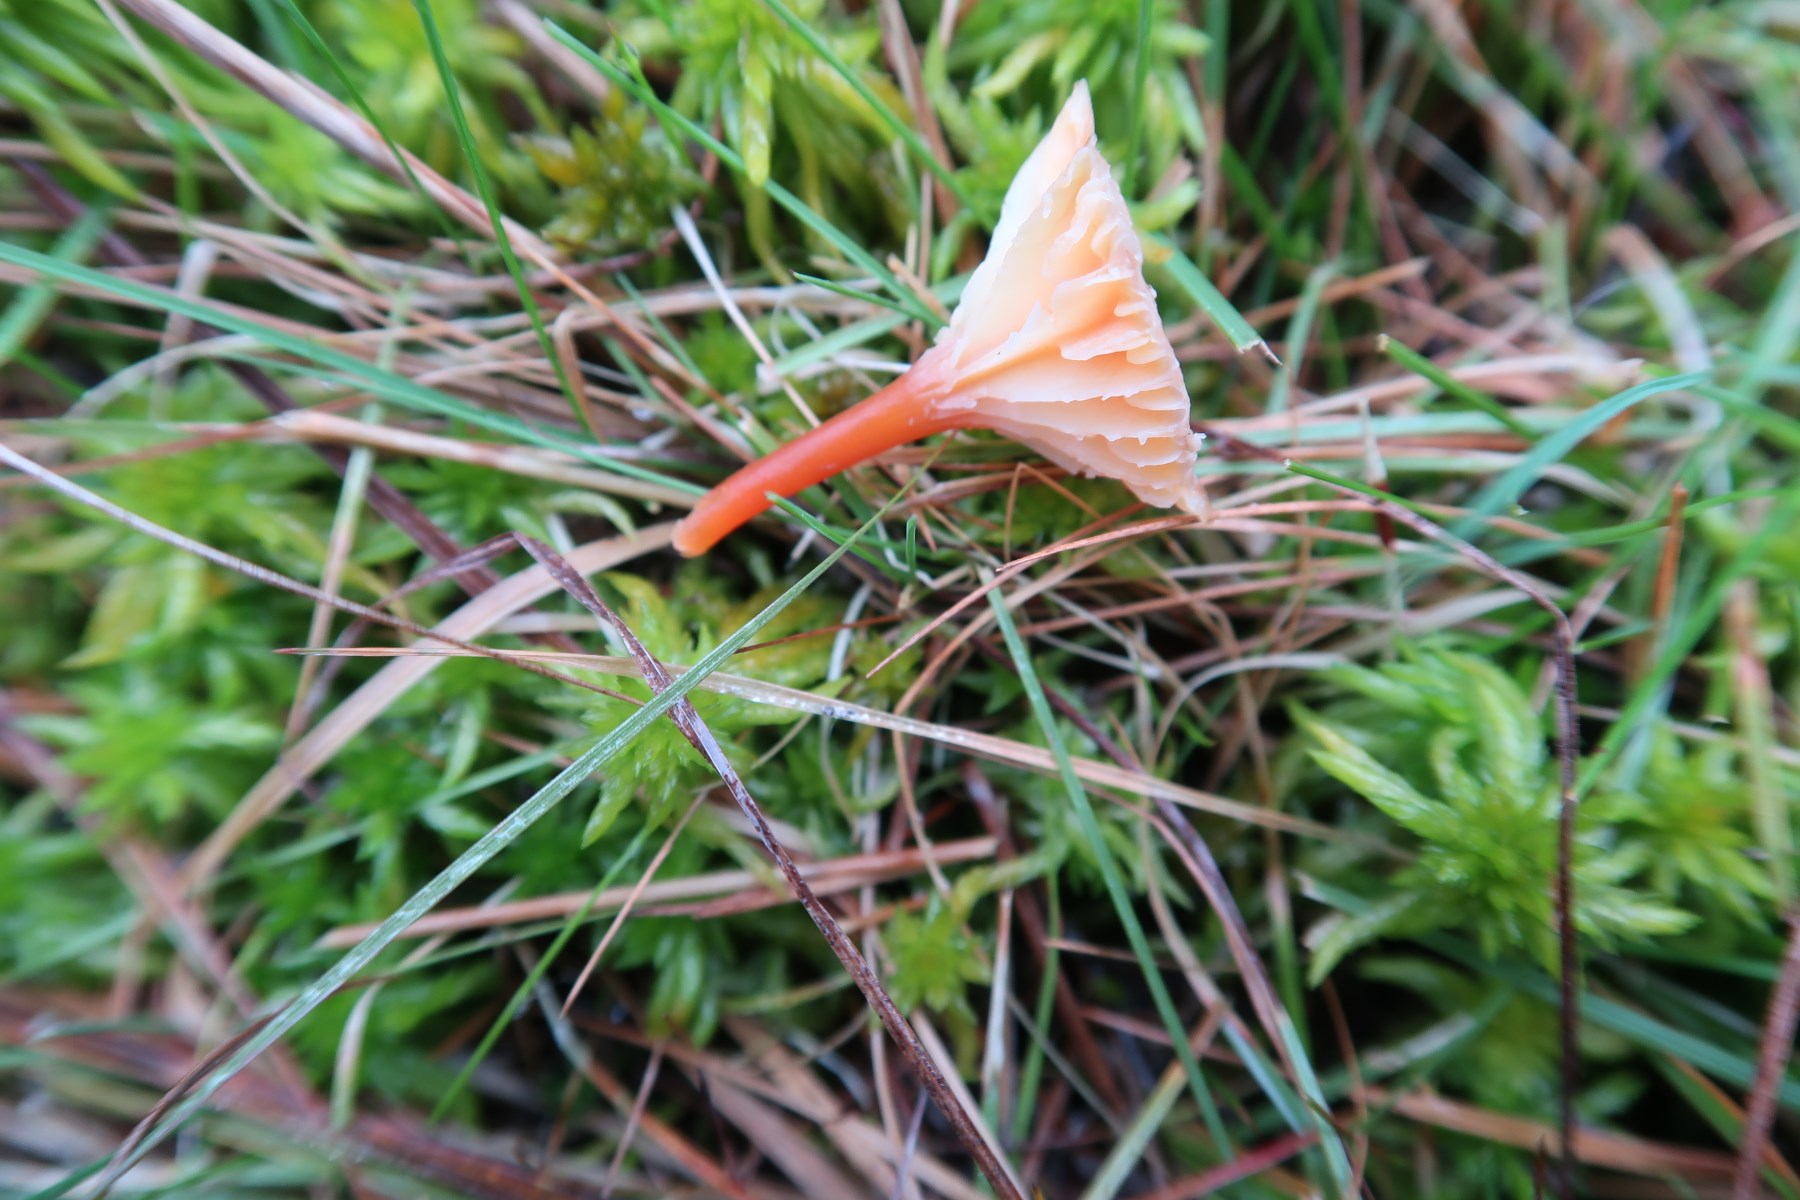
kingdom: Fungi
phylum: Basidiomycota
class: Agaricomycetes
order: Agaricales
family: Hygrophoraceae
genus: Hygrocybe
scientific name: Hygrocybe cantharellus
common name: kantarel-vokshat
